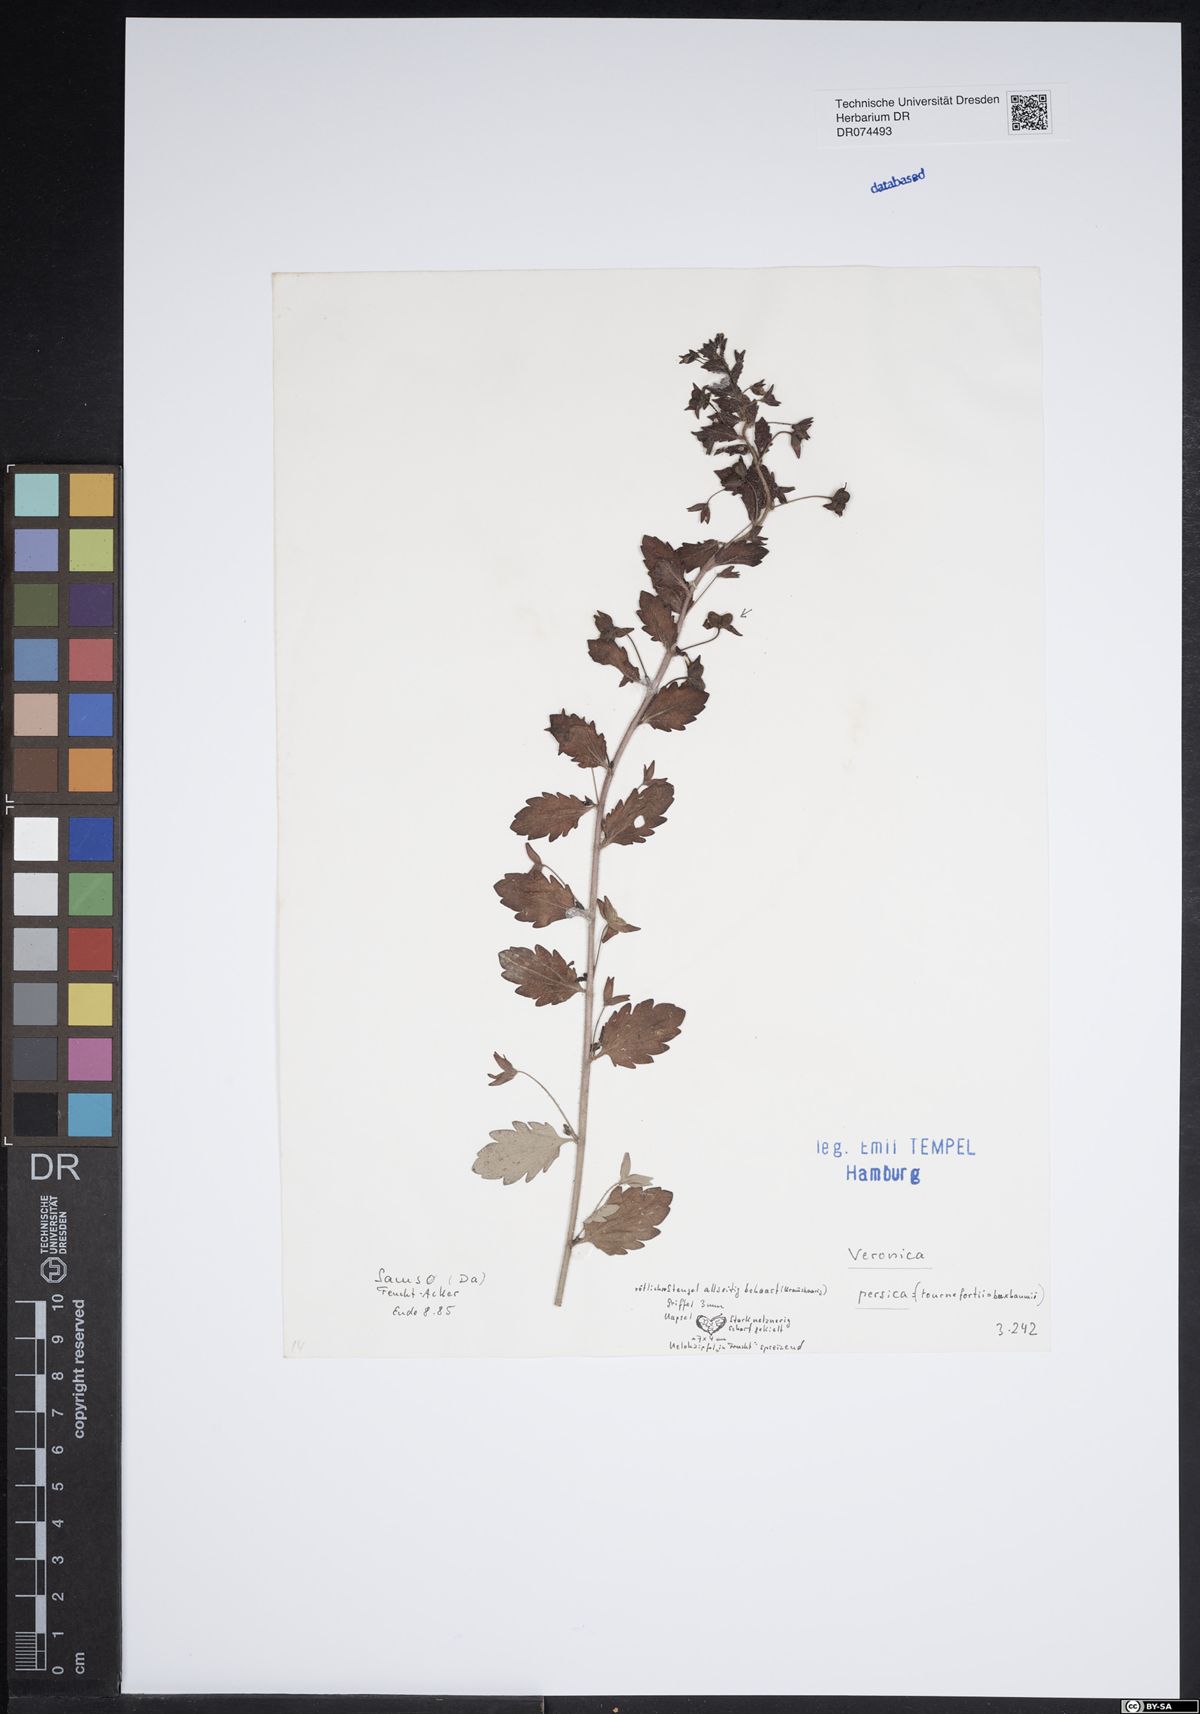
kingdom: Plantae
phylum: Tracheophyta
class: Magnoliopsida
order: Lamiales
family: Plantaginaceae
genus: Veronica
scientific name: Veronica persica
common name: Common field-speedwell
